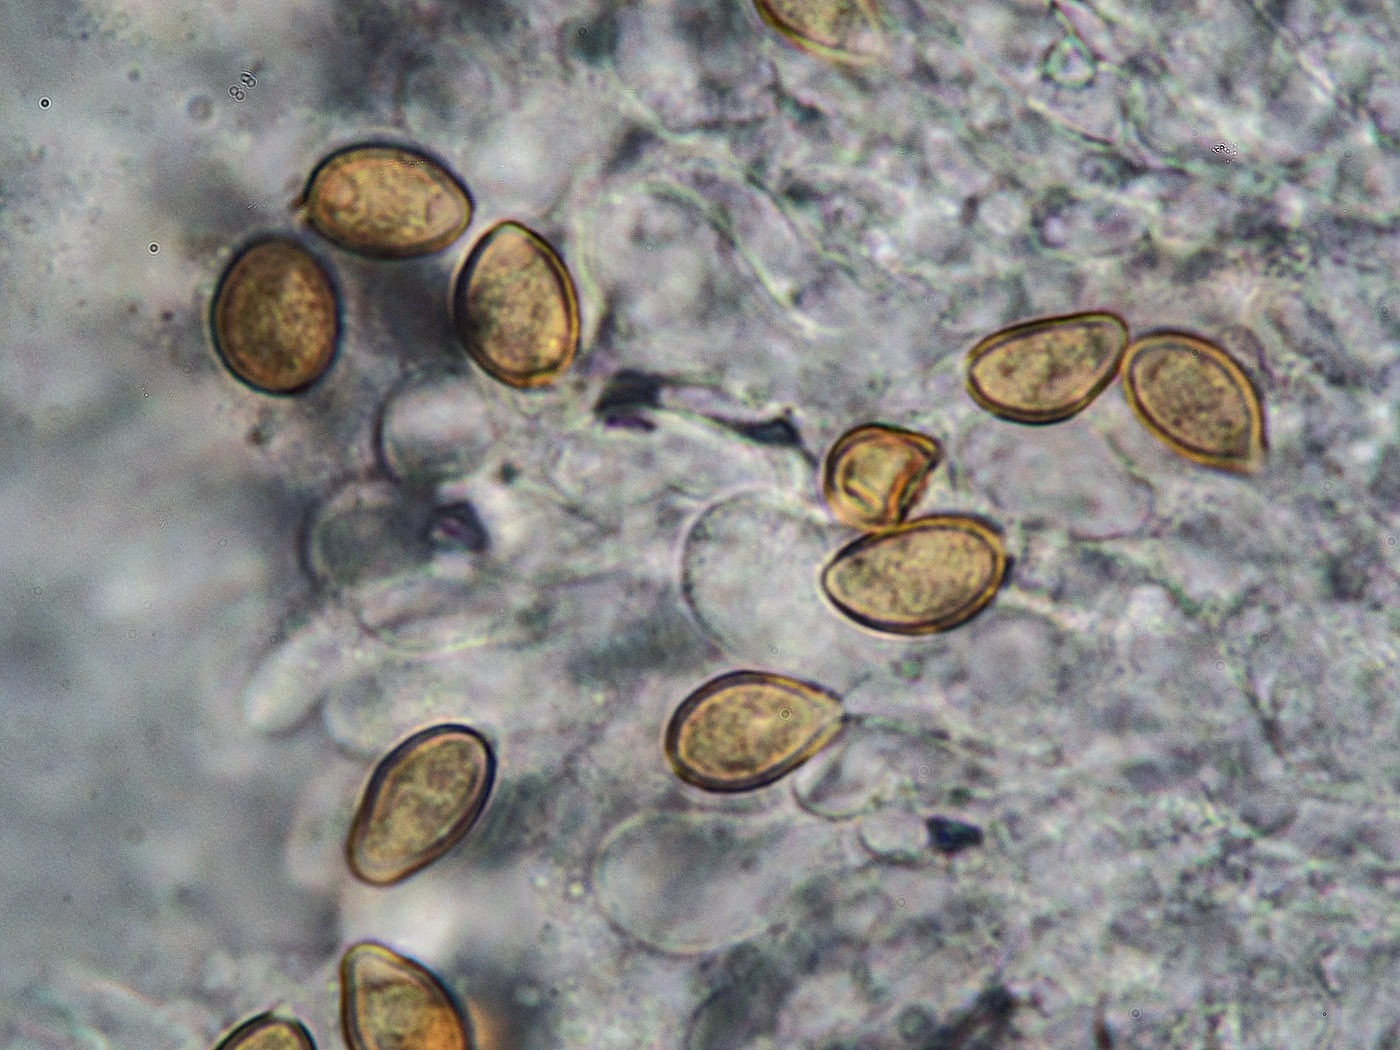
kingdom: Fungi
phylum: Basidiomycota
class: Agaricomycetes
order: Agaricales
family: Cortinariaceae
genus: Cortinarius
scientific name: Cortinarius anomalus
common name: Variable webcap
